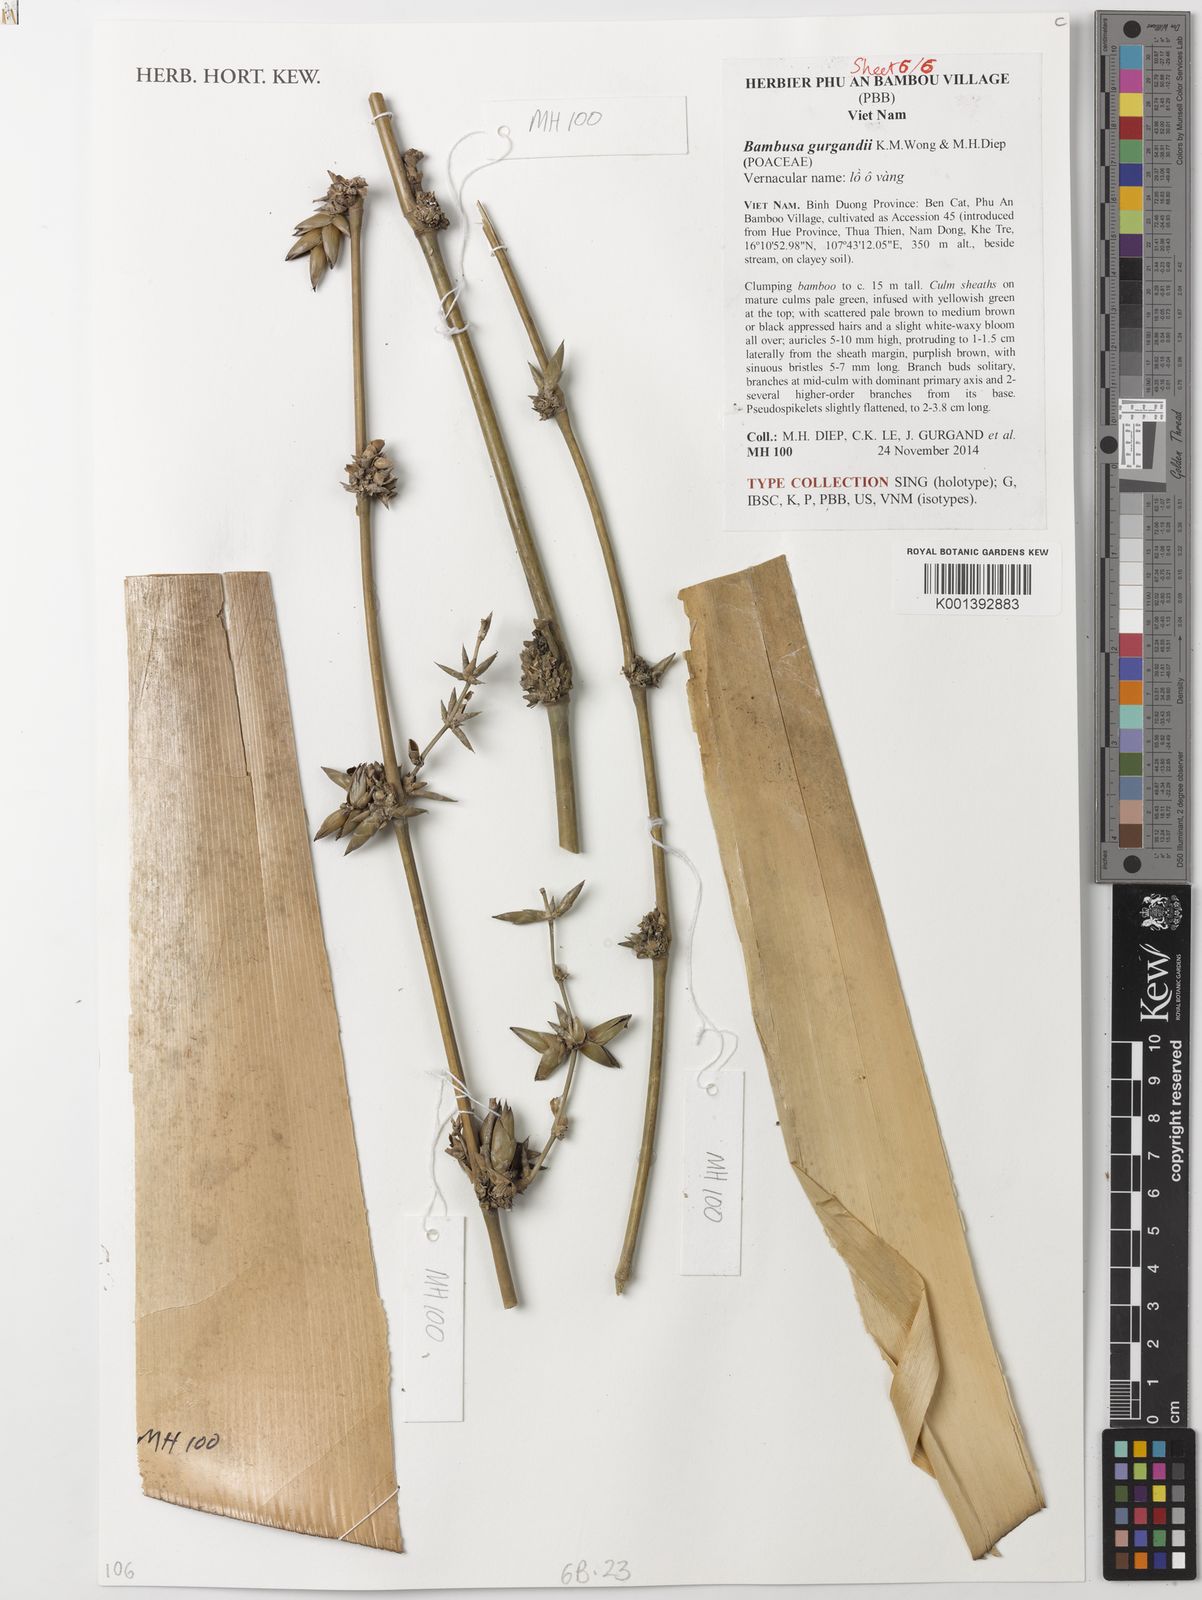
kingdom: Plantae
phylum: Tracheophyta
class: Liliopsida
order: Poales
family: Poaceae
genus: Bambusa
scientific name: Bambusa gurgandii
